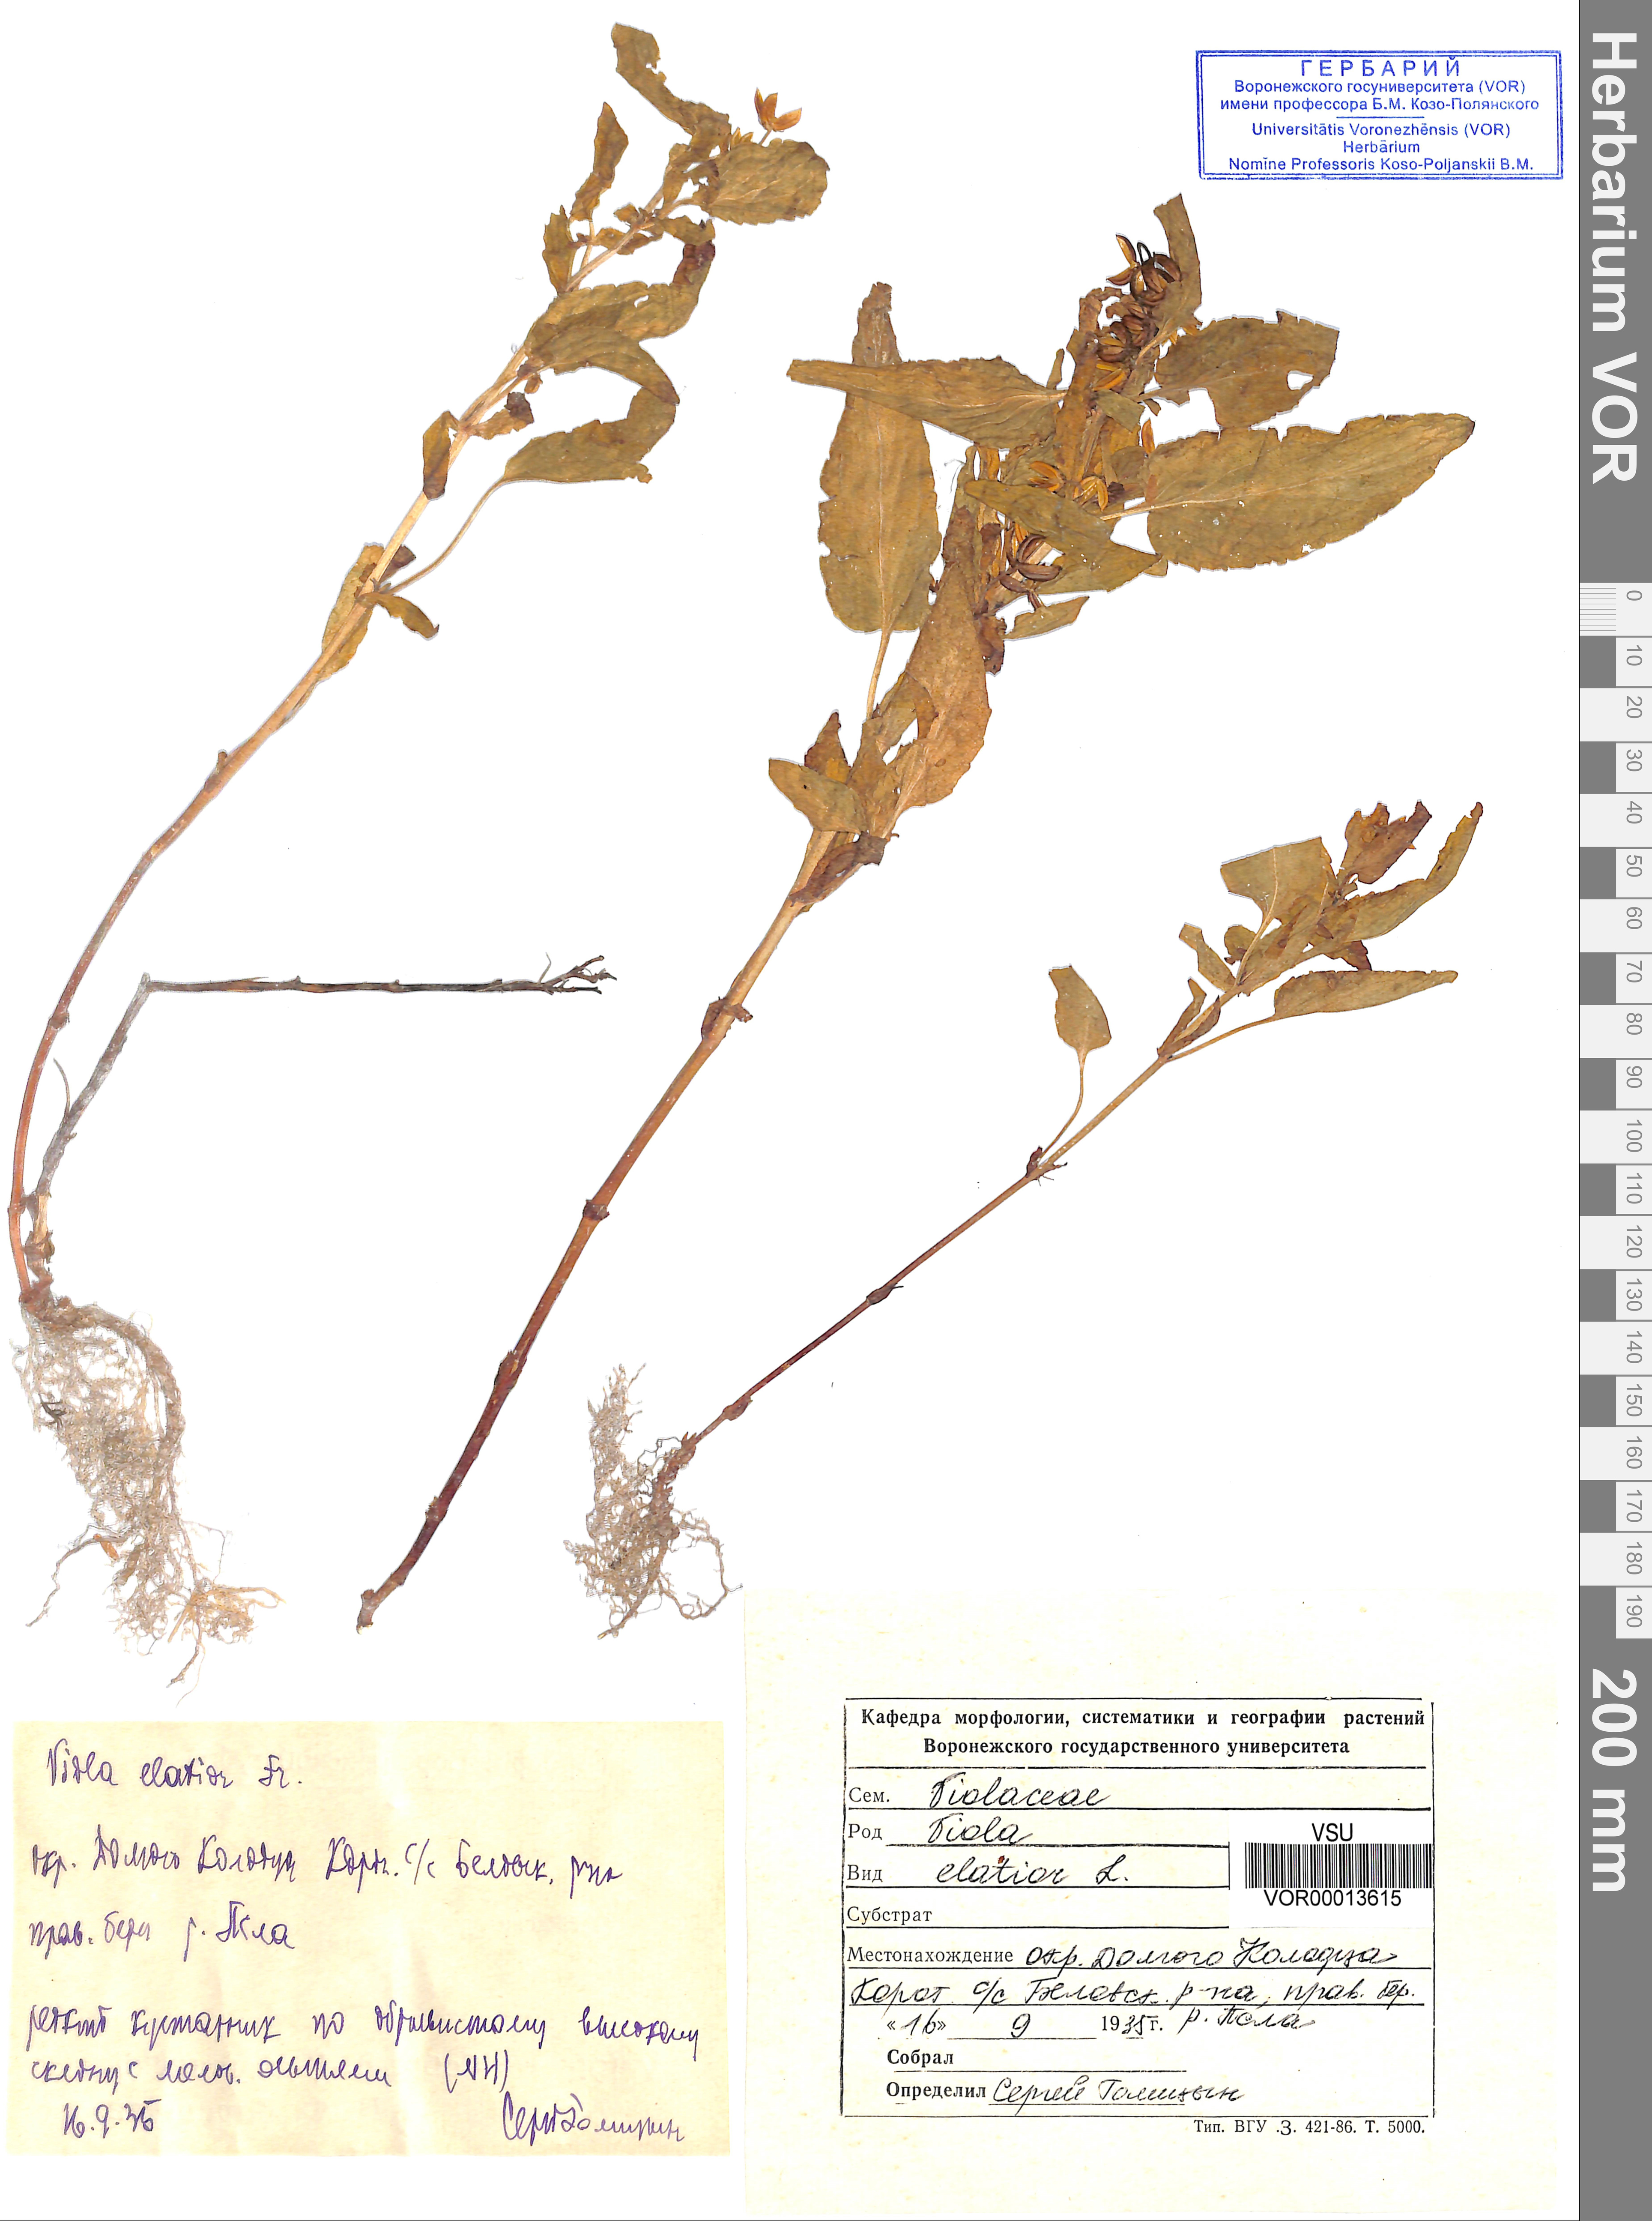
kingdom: Plantae
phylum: Tracheophyta
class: Magnoliopsida
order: Malpighiales
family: Violaceae
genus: Viola
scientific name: Viola elatior
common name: Tall violet
